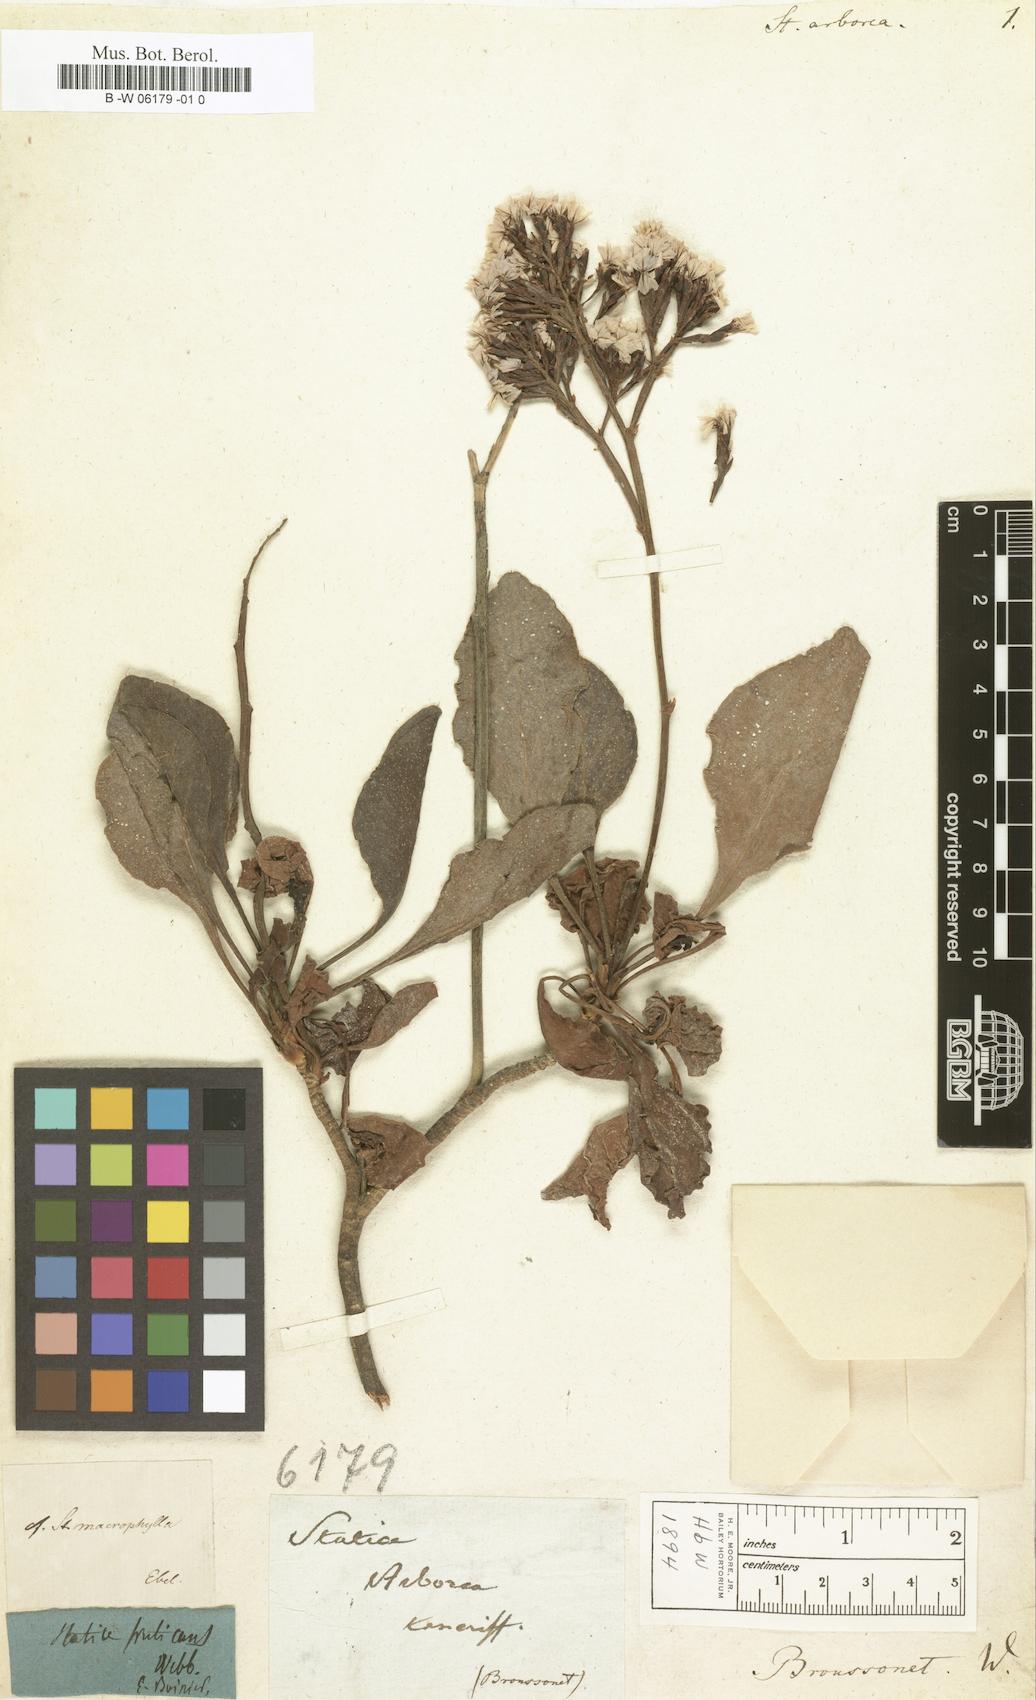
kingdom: Plantae
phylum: Tracheophyta
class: Magnoliopsida
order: Caryophyllales
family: Plumbaginaceae
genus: Limonium
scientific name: Limonium arboreum
